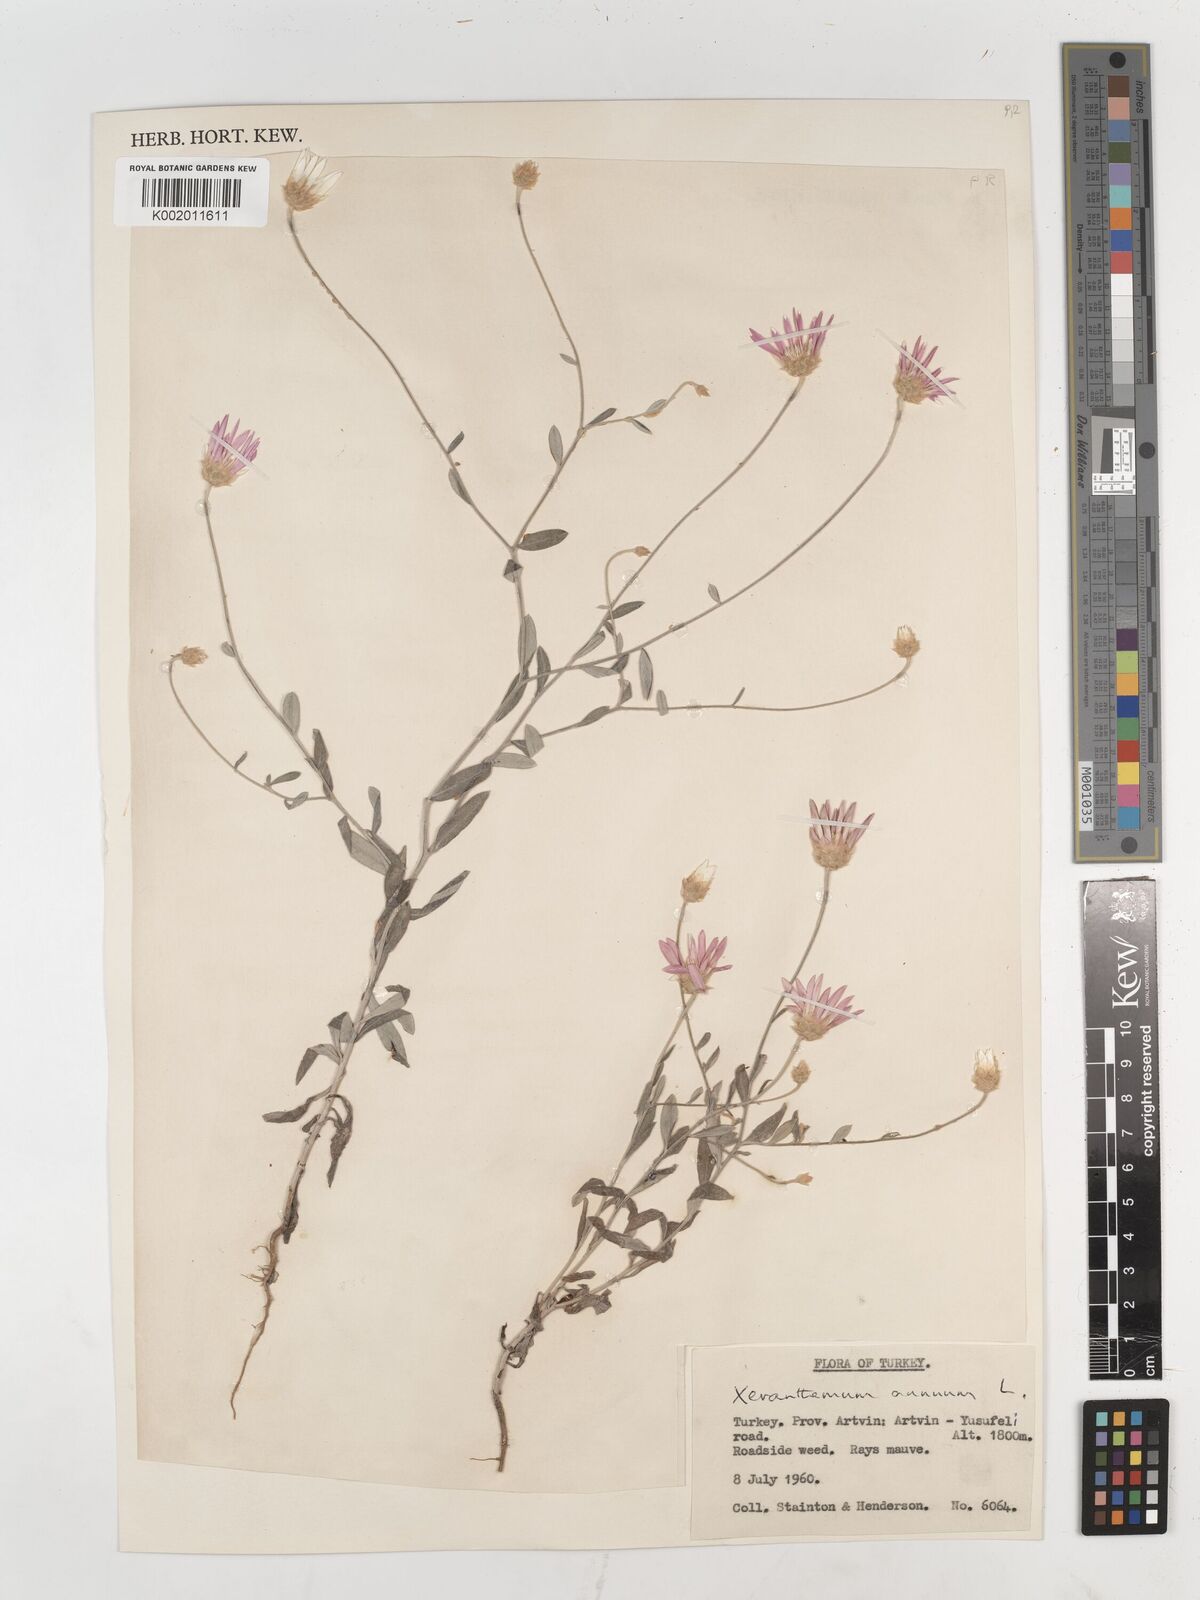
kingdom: Plantae
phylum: Tracheophyta
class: Magnoliopsida
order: Asterales
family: Asteraceae
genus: Xeranthemum
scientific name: Xeranthemum annuum
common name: Immortelle
